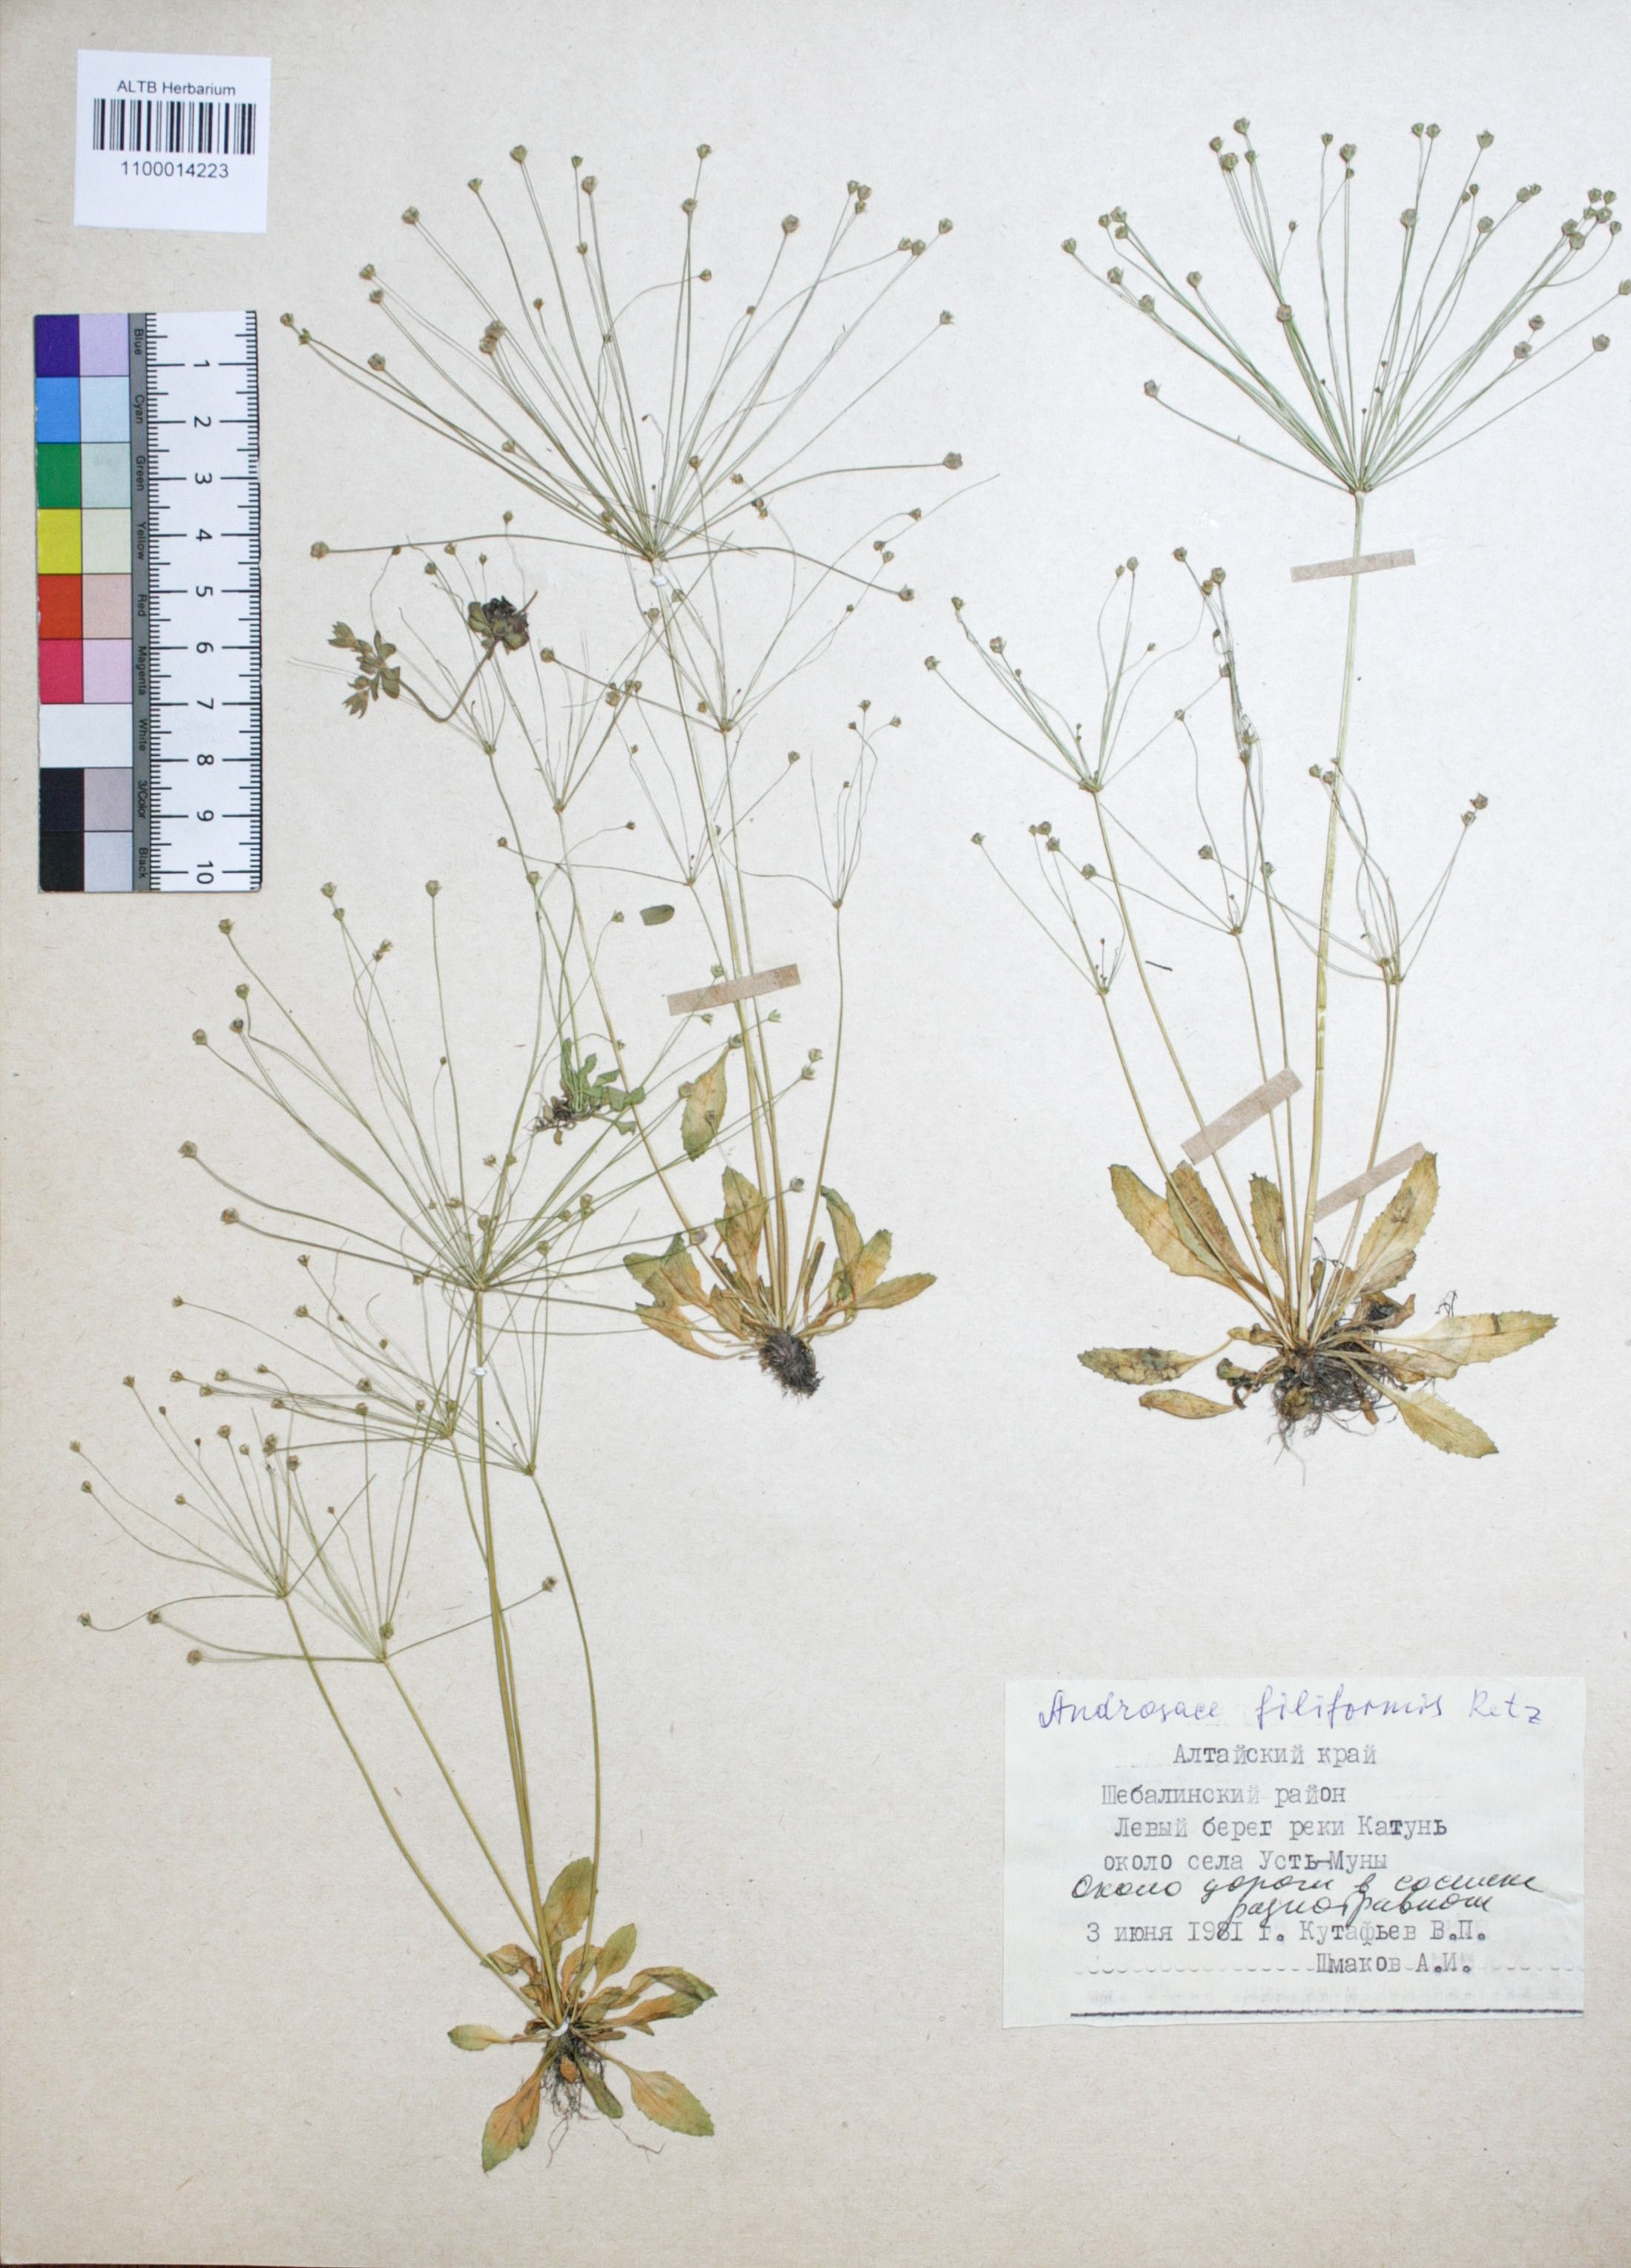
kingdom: Plantae
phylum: Tracheophyta
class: Magnoliopsida
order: Ericales
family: Primulaceae
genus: Androsace
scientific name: Androsace filiformis
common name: Filiform rock jasmine
